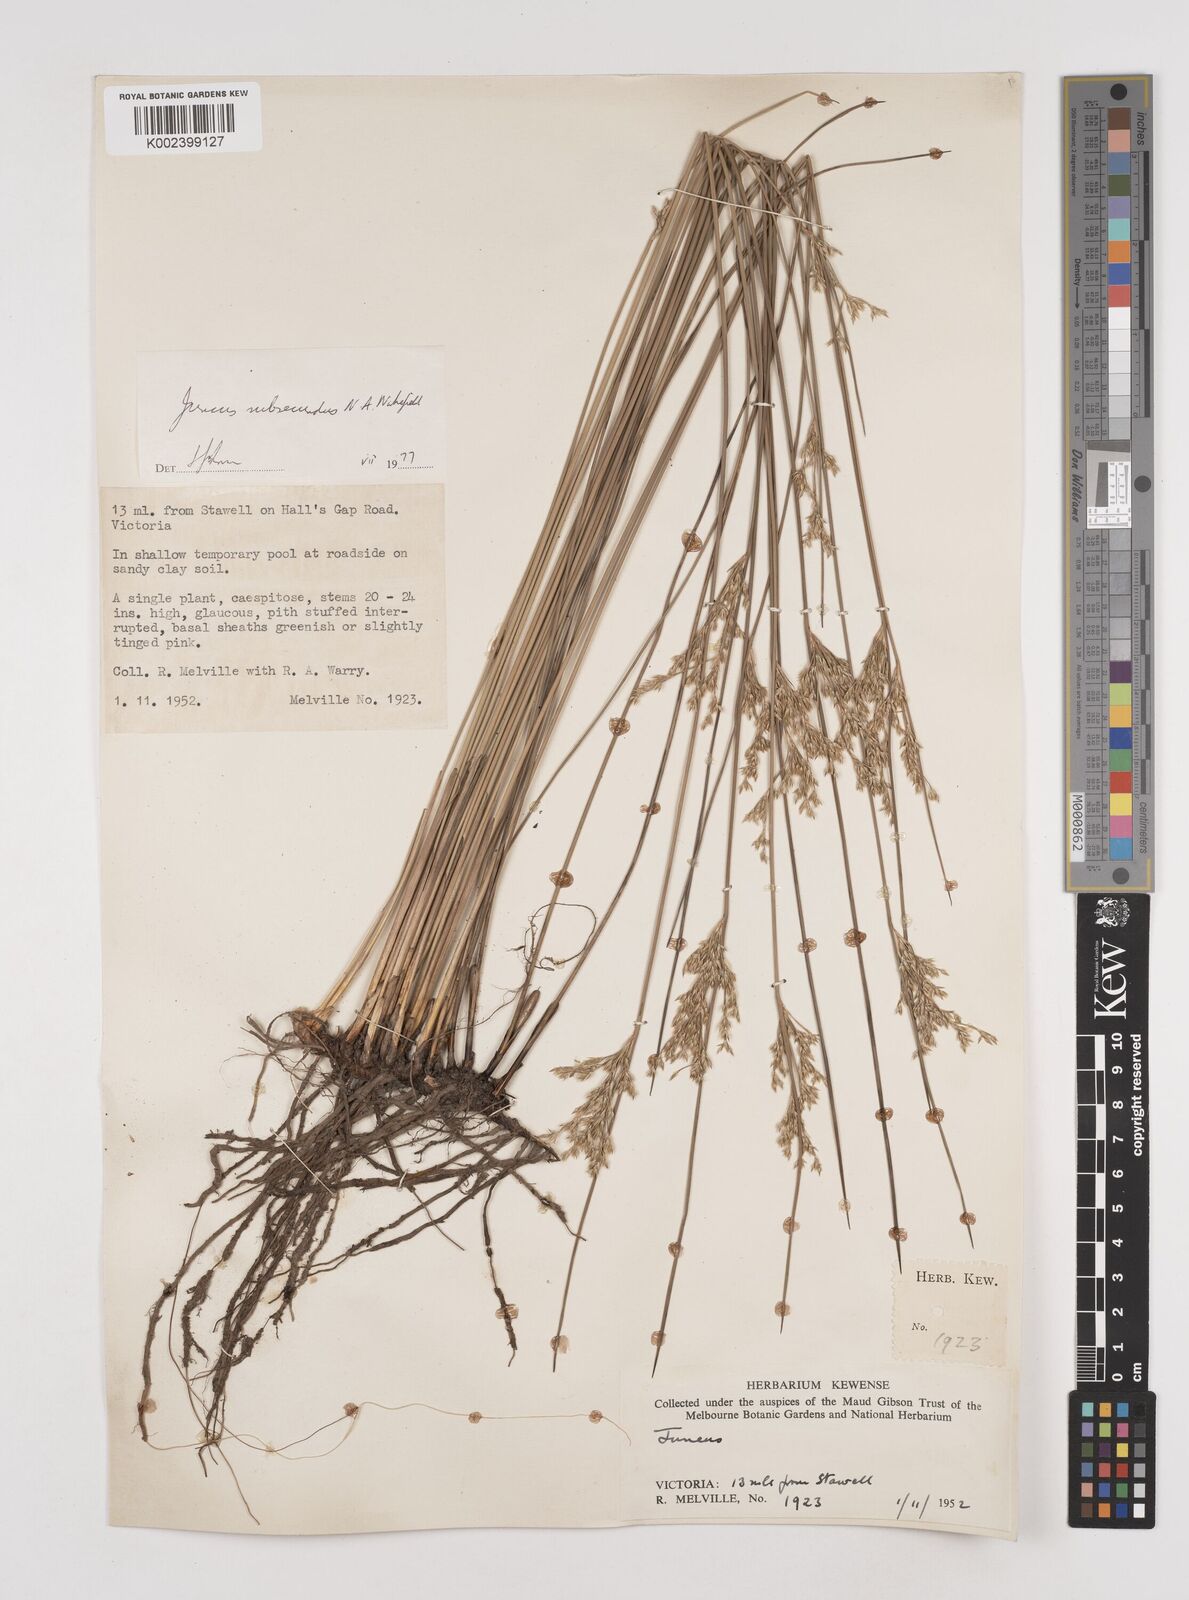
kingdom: Plantae
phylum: Tracheophyta
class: Liliopsida
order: Poales
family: Juncaceae
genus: Juncus
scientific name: Juncus subsecundus
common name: Fingered rush
